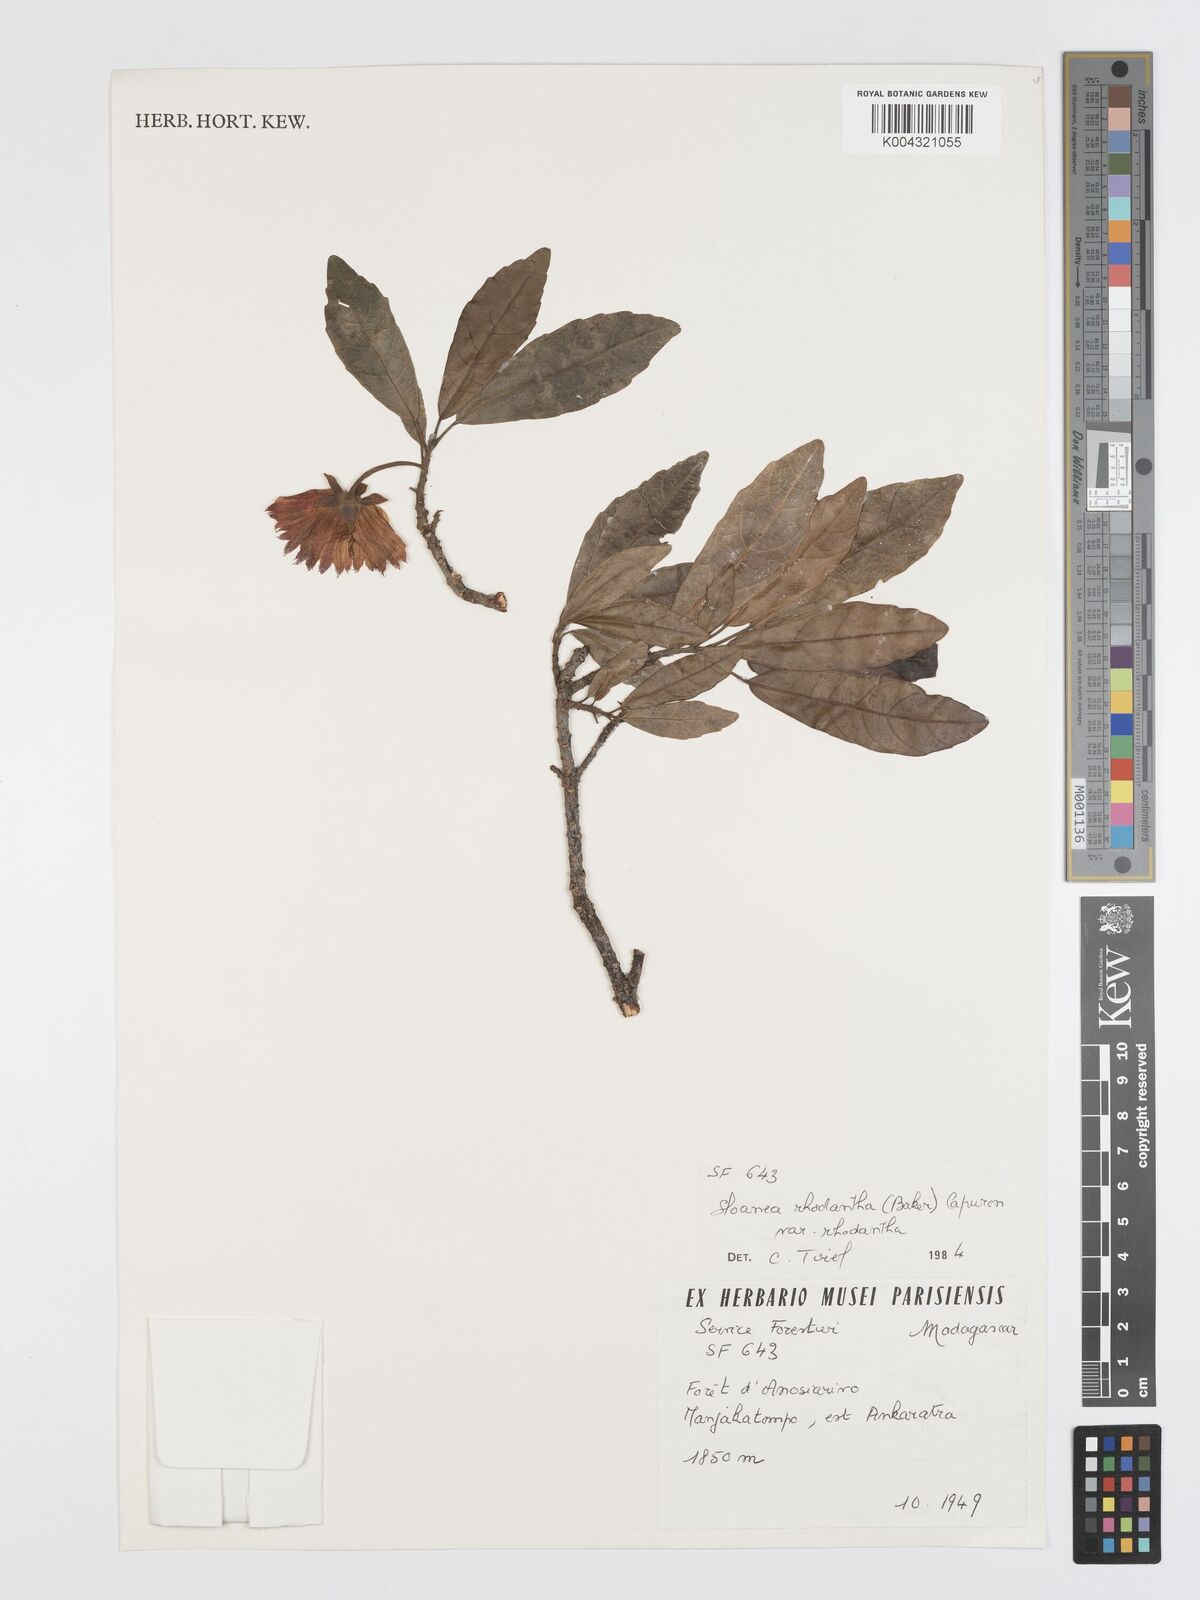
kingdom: Plantae
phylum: Tracheophyta
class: Magnoliopsida
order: Oxalidales
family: Elaeocarpaceae
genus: Sloanea
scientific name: Sloanea rhodantha
